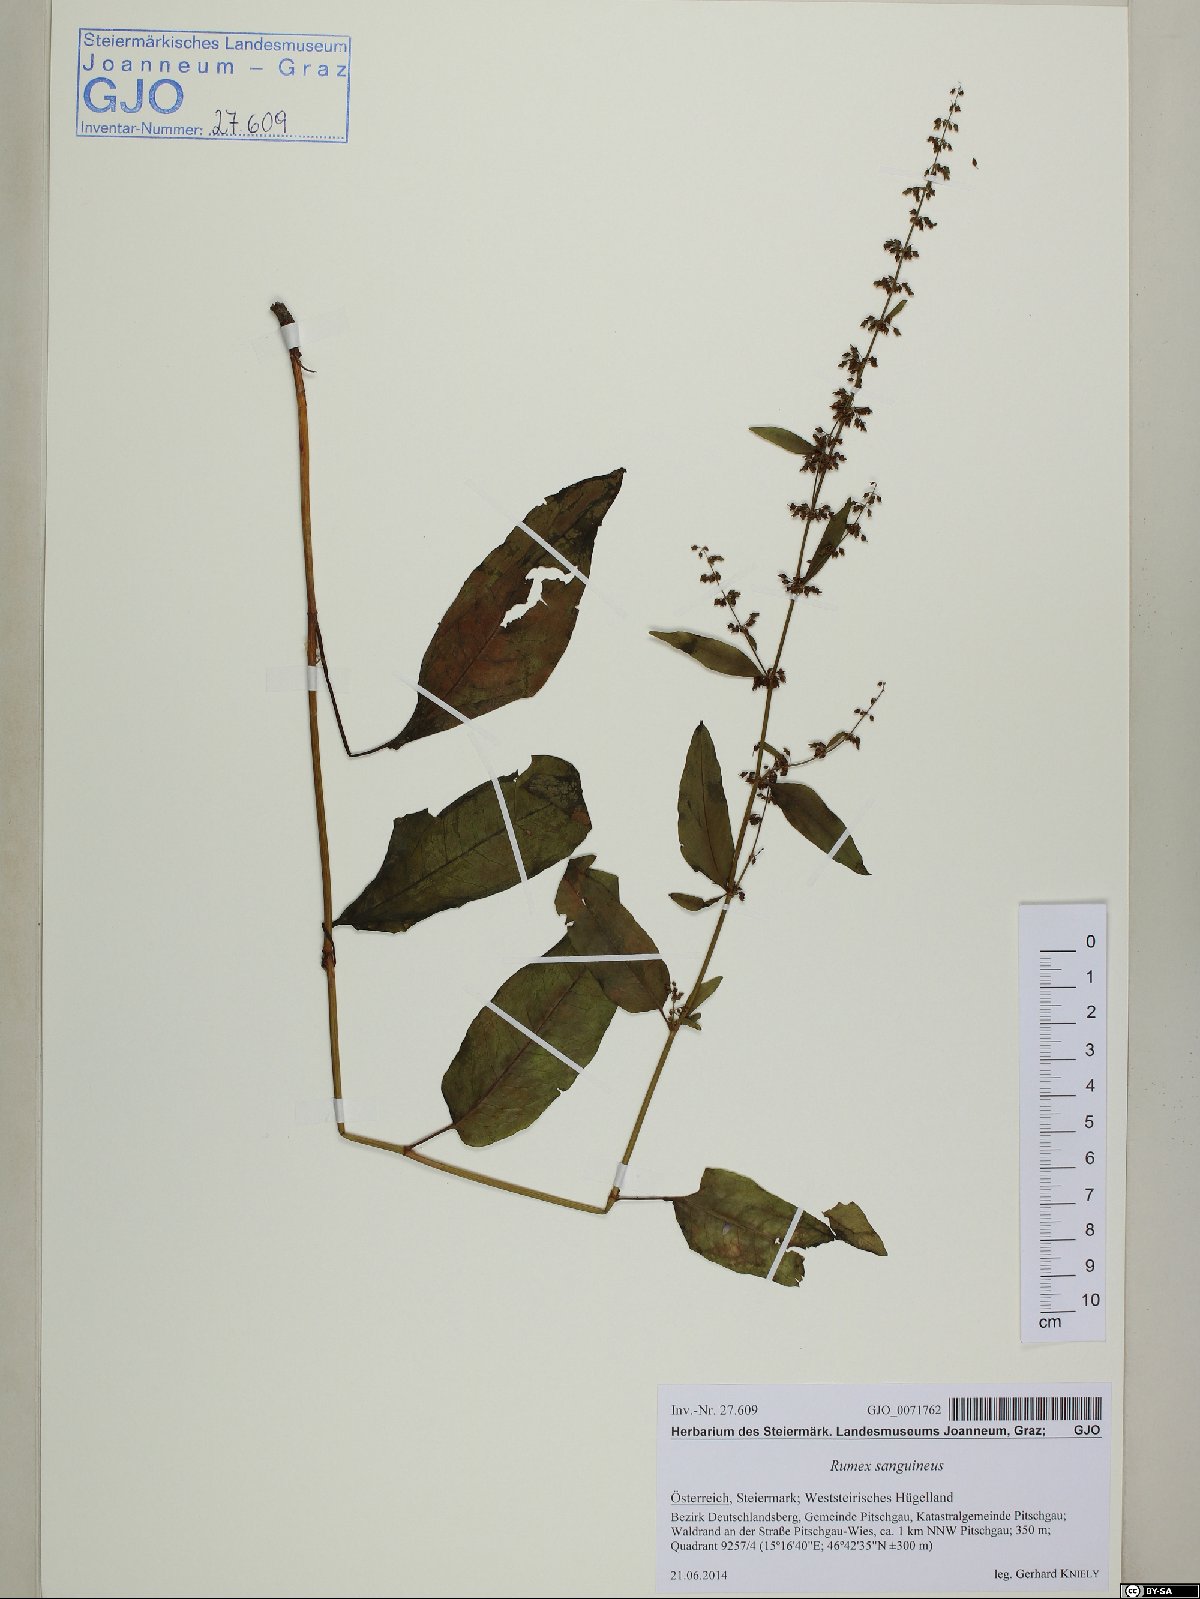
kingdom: Plantae
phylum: Tracheophyta
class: Magnoliopsida
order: Caryophyllales
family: Polygonaceae
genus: Rumex
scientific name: Rumex sanguineus
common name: Wood dock
